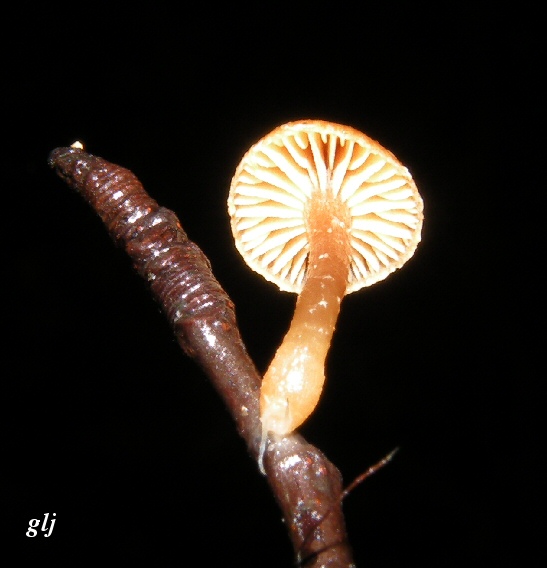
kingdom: Fungi
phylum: Basidiomycota
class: Agaricomycetes
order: Agaricales
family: Tubariaceae
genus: Tubaria
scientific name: Tubaria furfuracea
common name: kliddet fnughat
